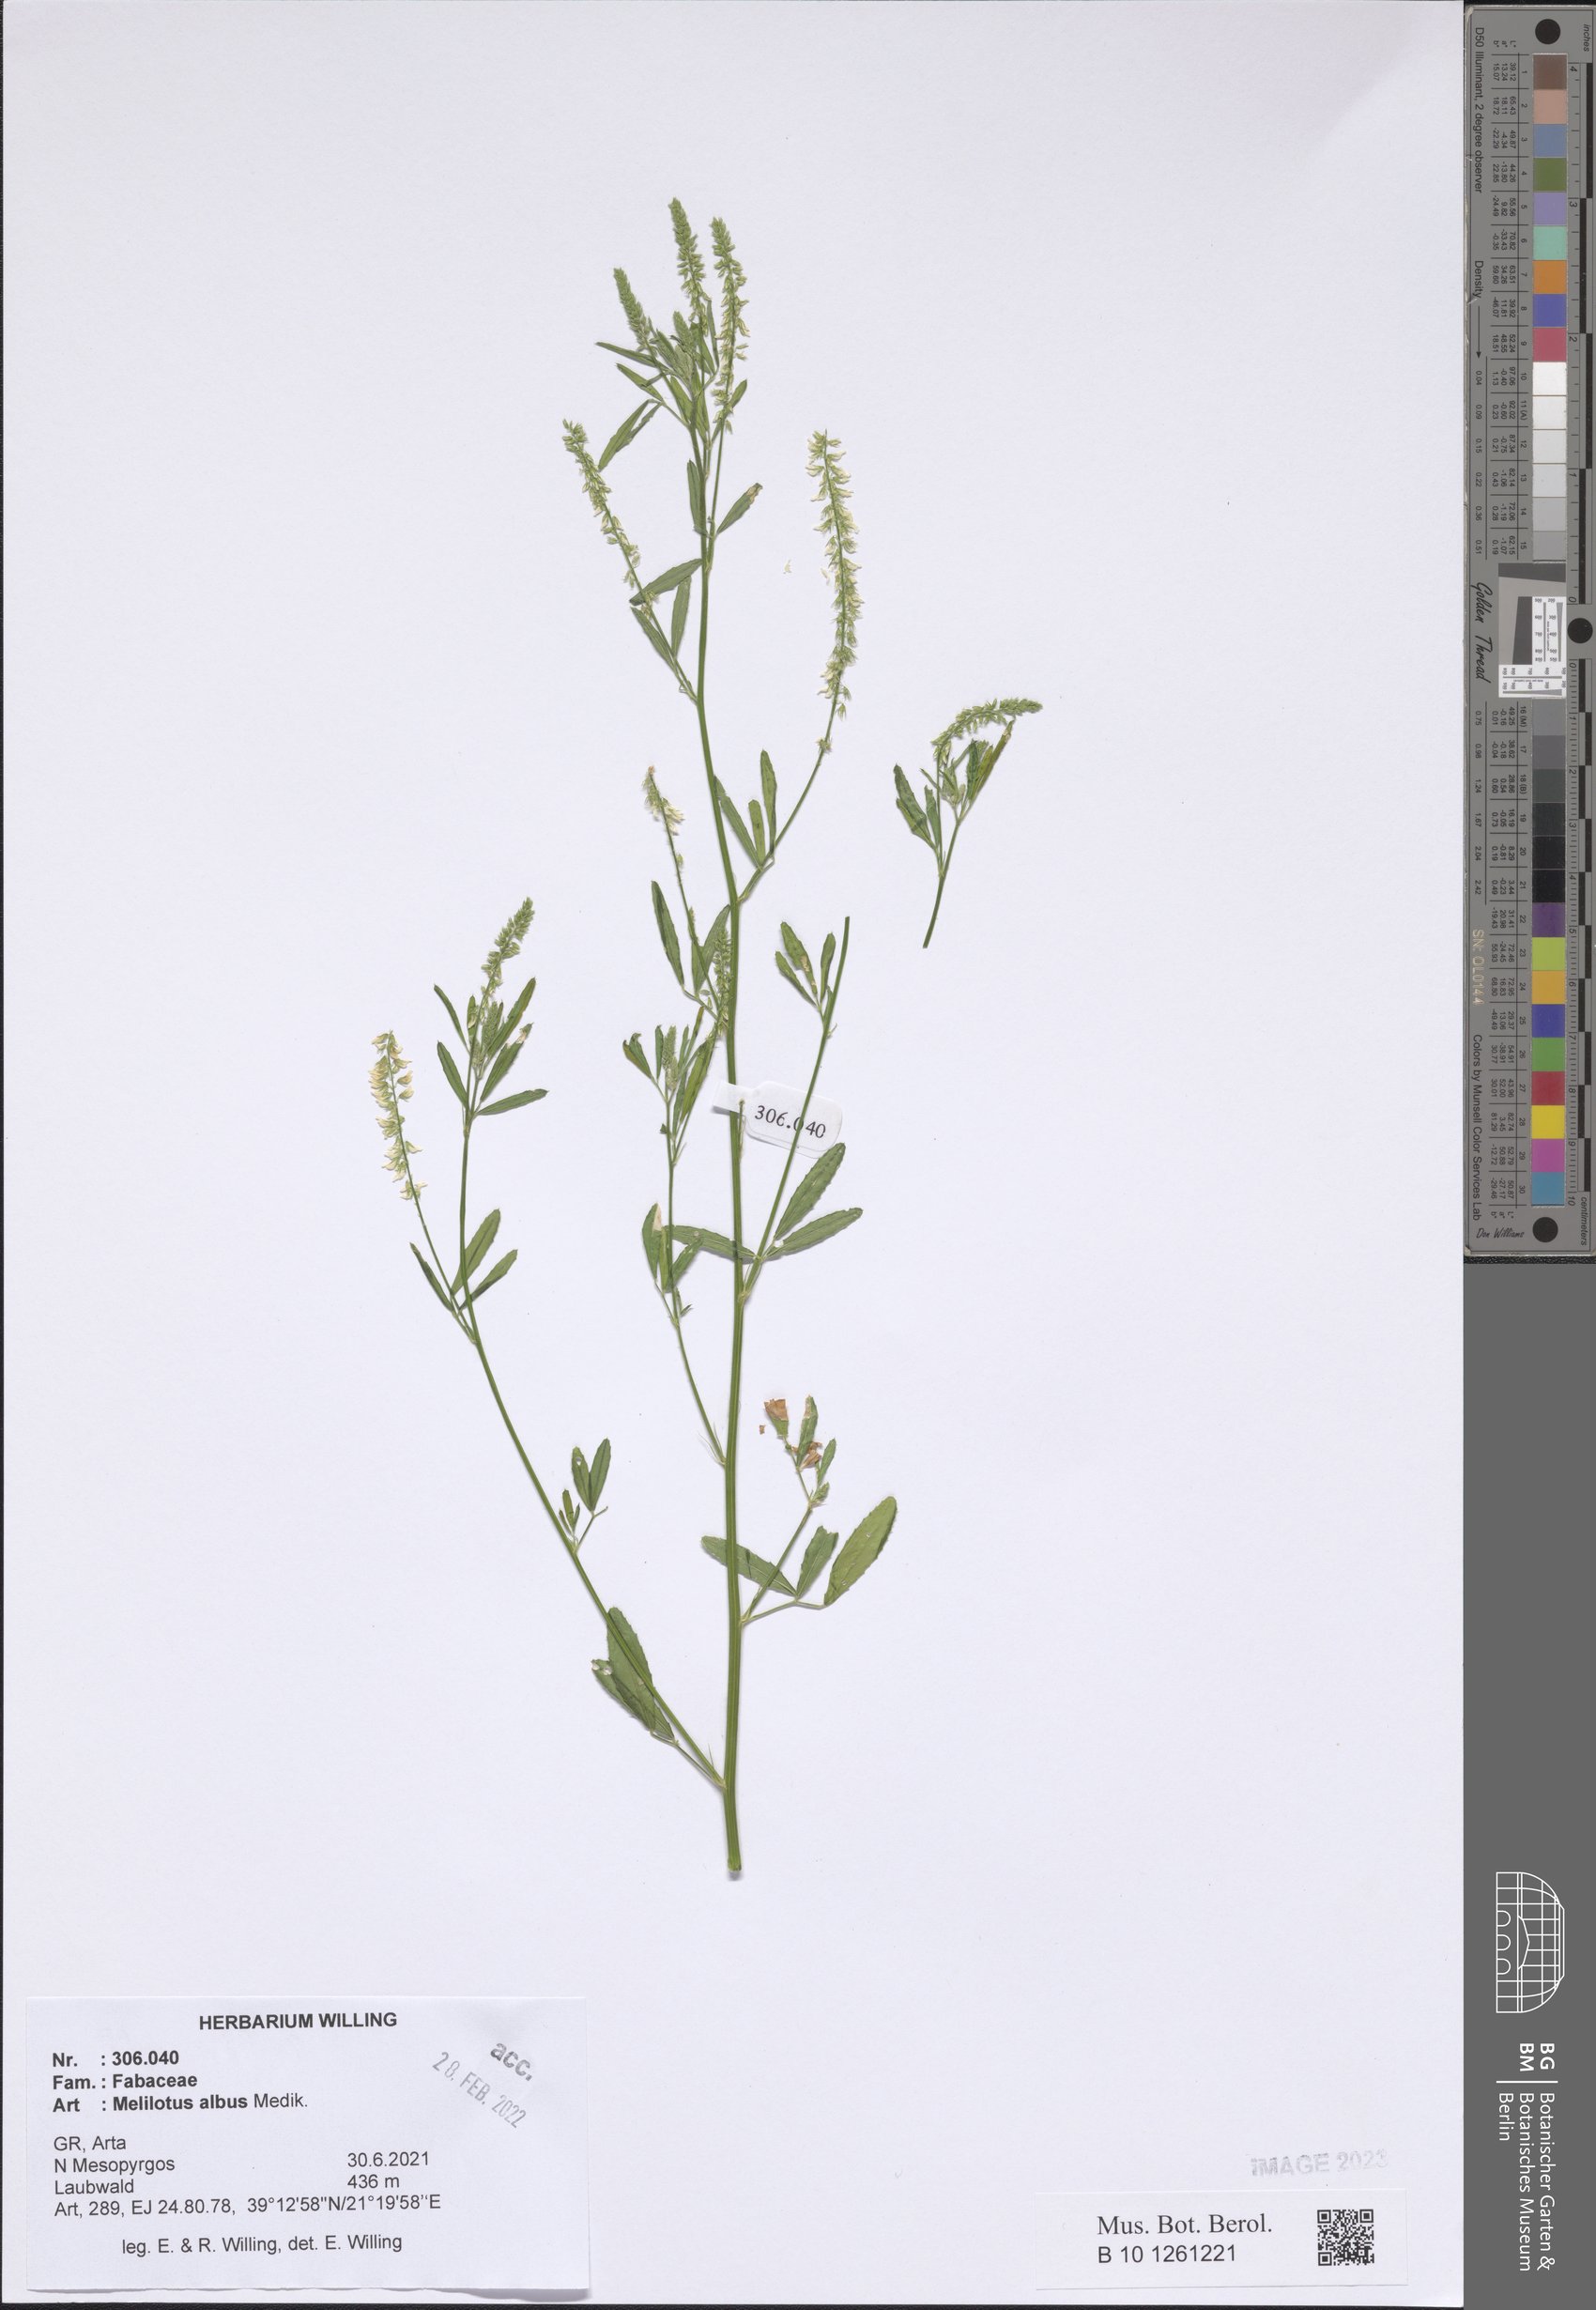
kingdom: Plantae
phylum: Tracheophyta
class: Magnoliopsida
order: Fabales
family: Fabaceae
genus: Melilotus
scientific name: Melilotus albus
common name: White melilot
